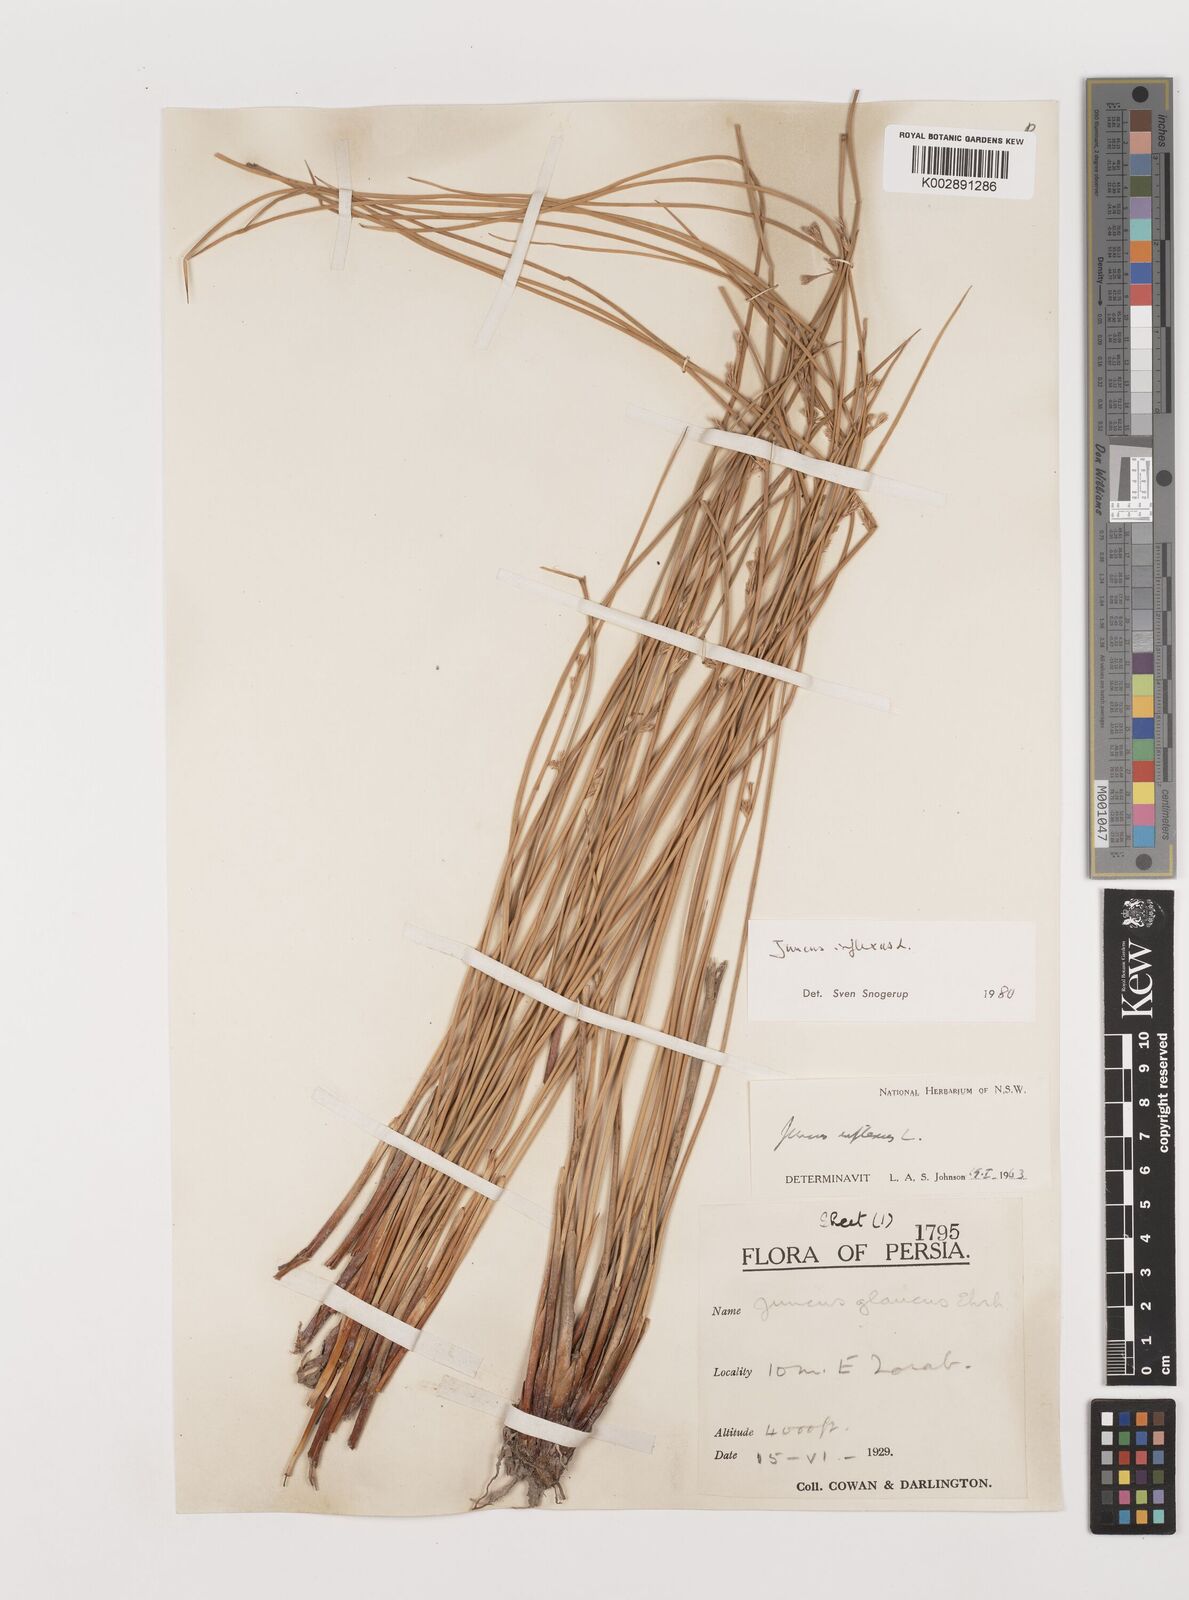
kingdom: Plantae
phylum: Tracheophyta
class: Liliopsida
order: Poales
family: Juncaceae
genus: Juncus
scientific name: Juncus inflexus
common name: Hard rush
